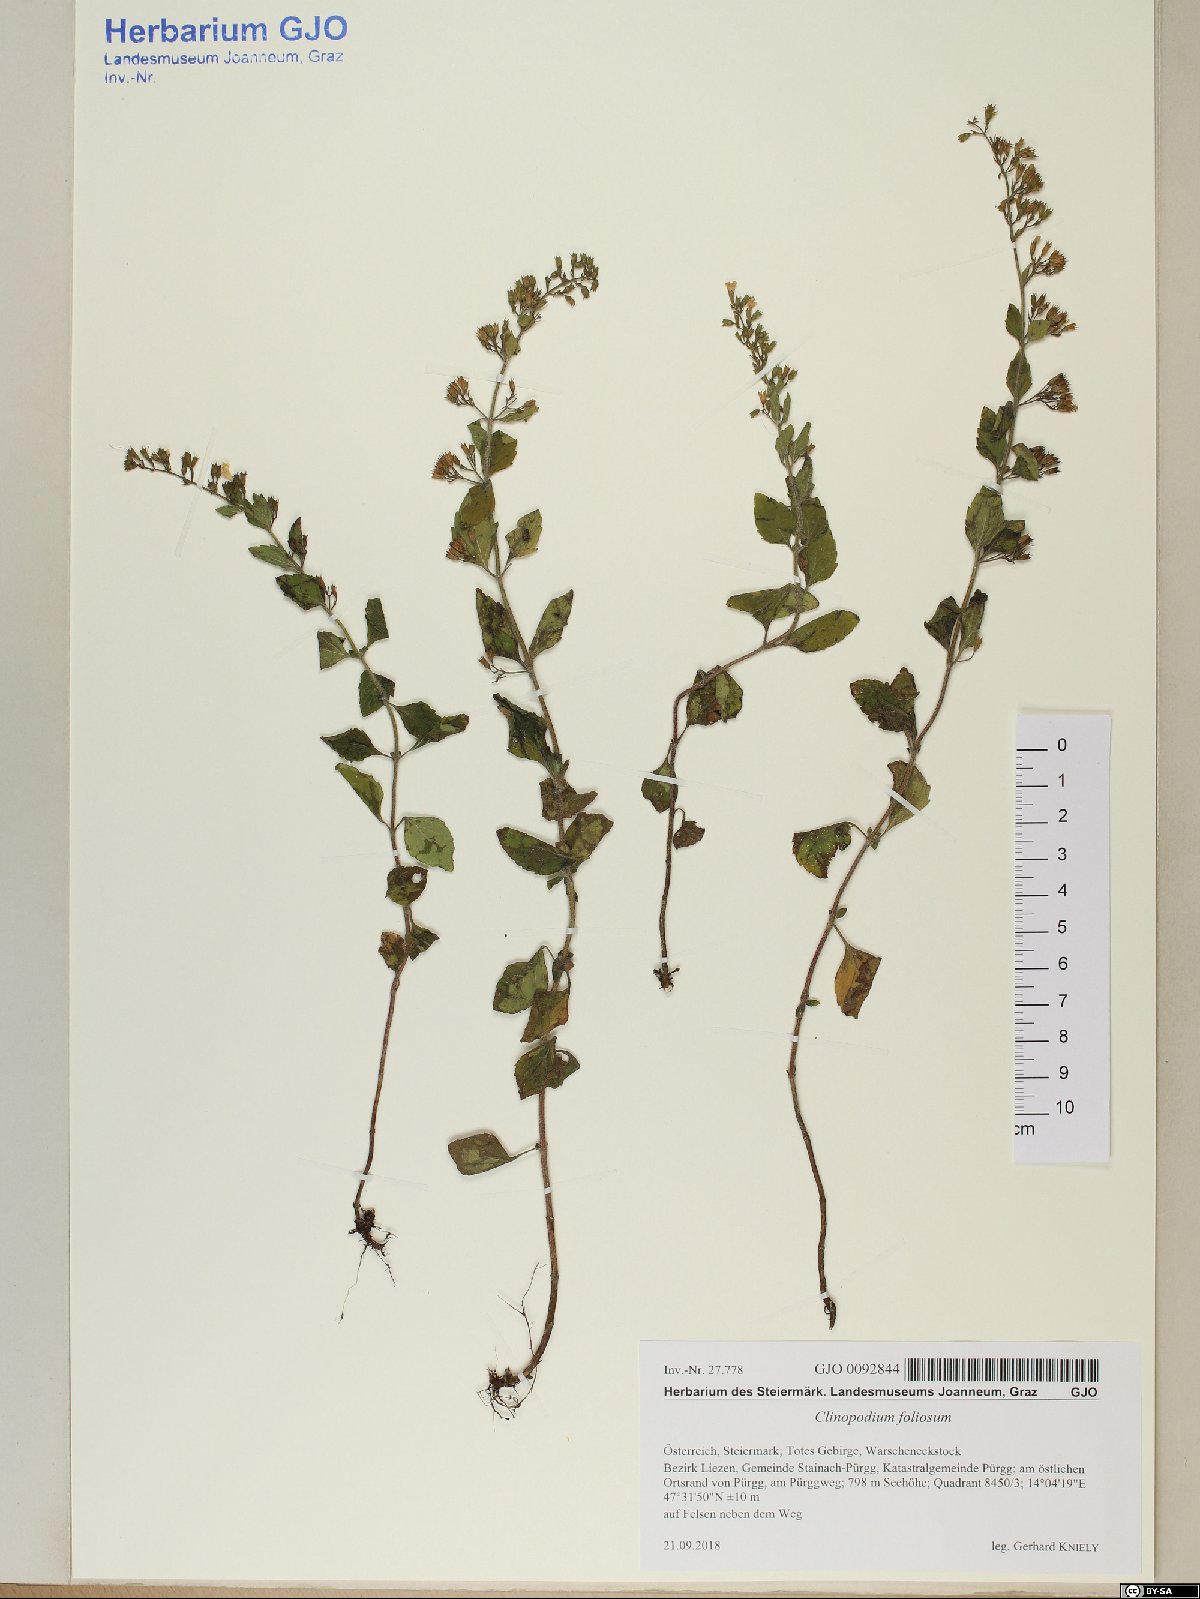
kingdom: Plantae
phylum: Tracheophyta
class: Magnoliopsida
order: Lamiales
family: Lamiaceae
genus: Clinopodium
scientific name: Clinopodium foliolosum
